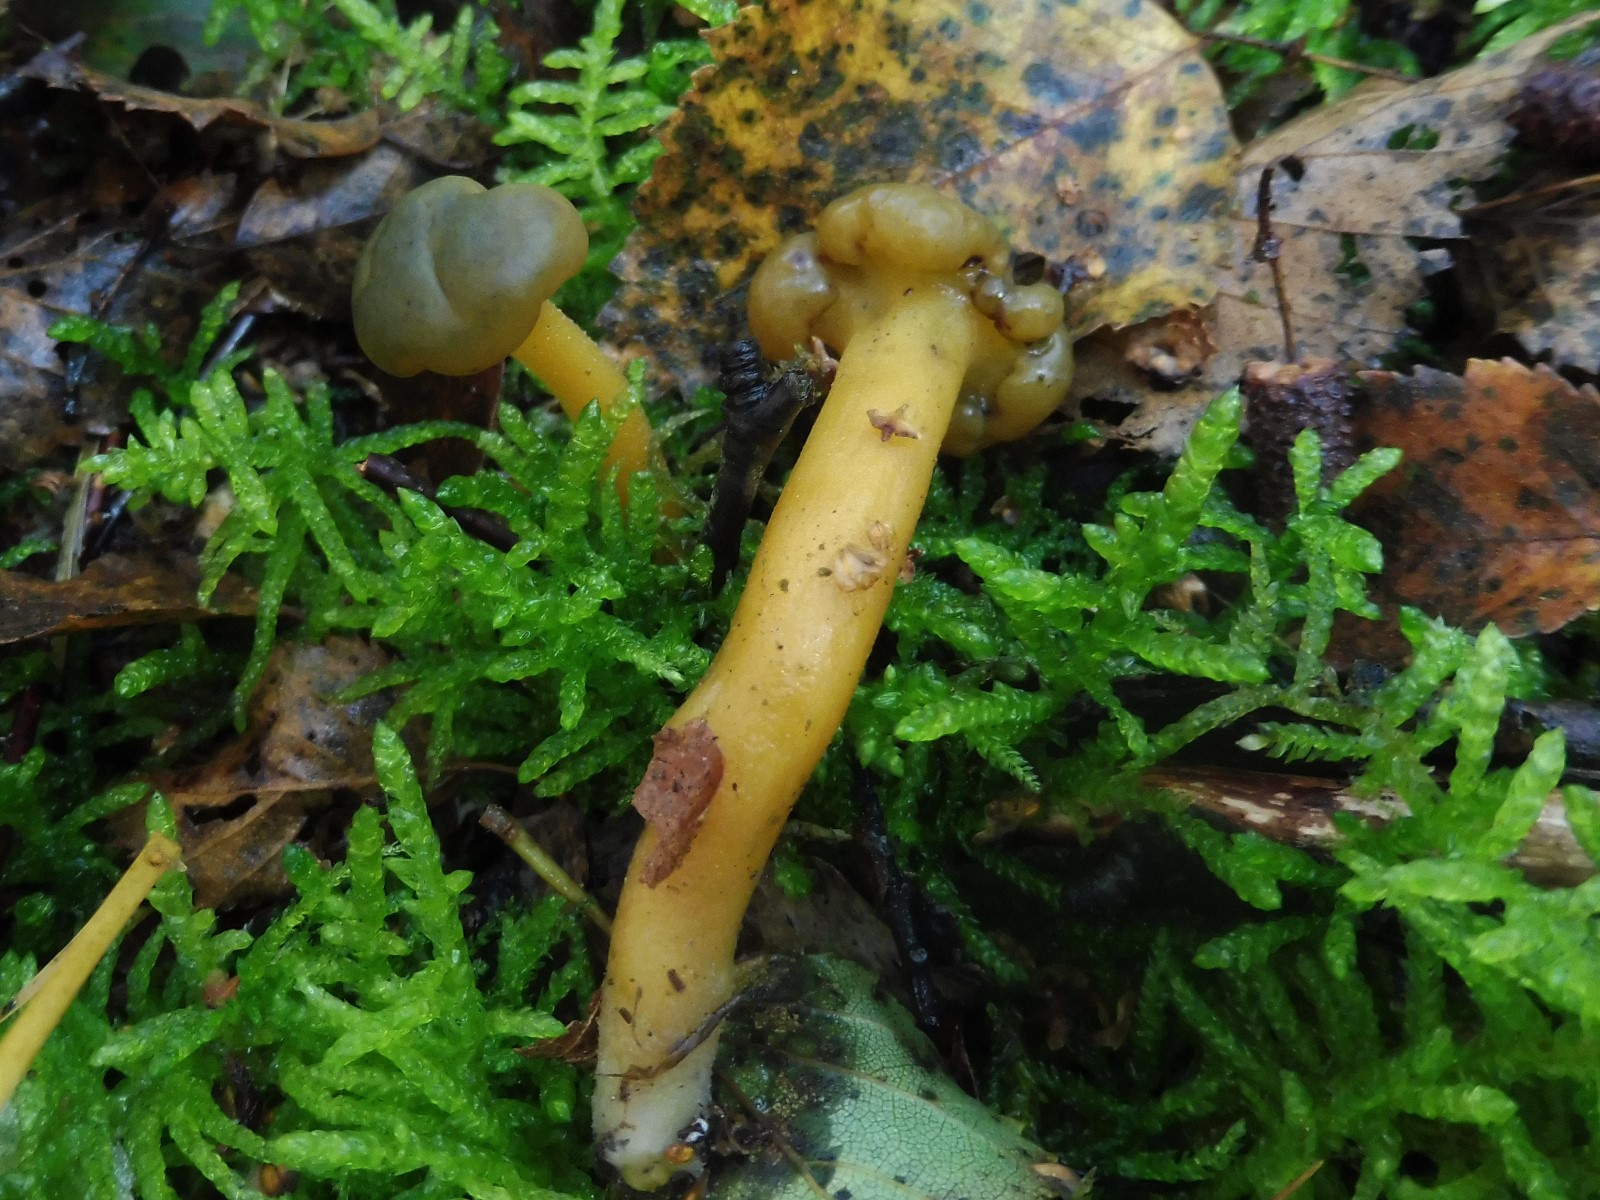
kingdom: Fungi
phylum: Ascomycota
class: Leotiomycetes
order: Leotiales
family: Leotiaceae
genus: Leotia
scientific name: Leotia lubrica
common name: ravsvamp
